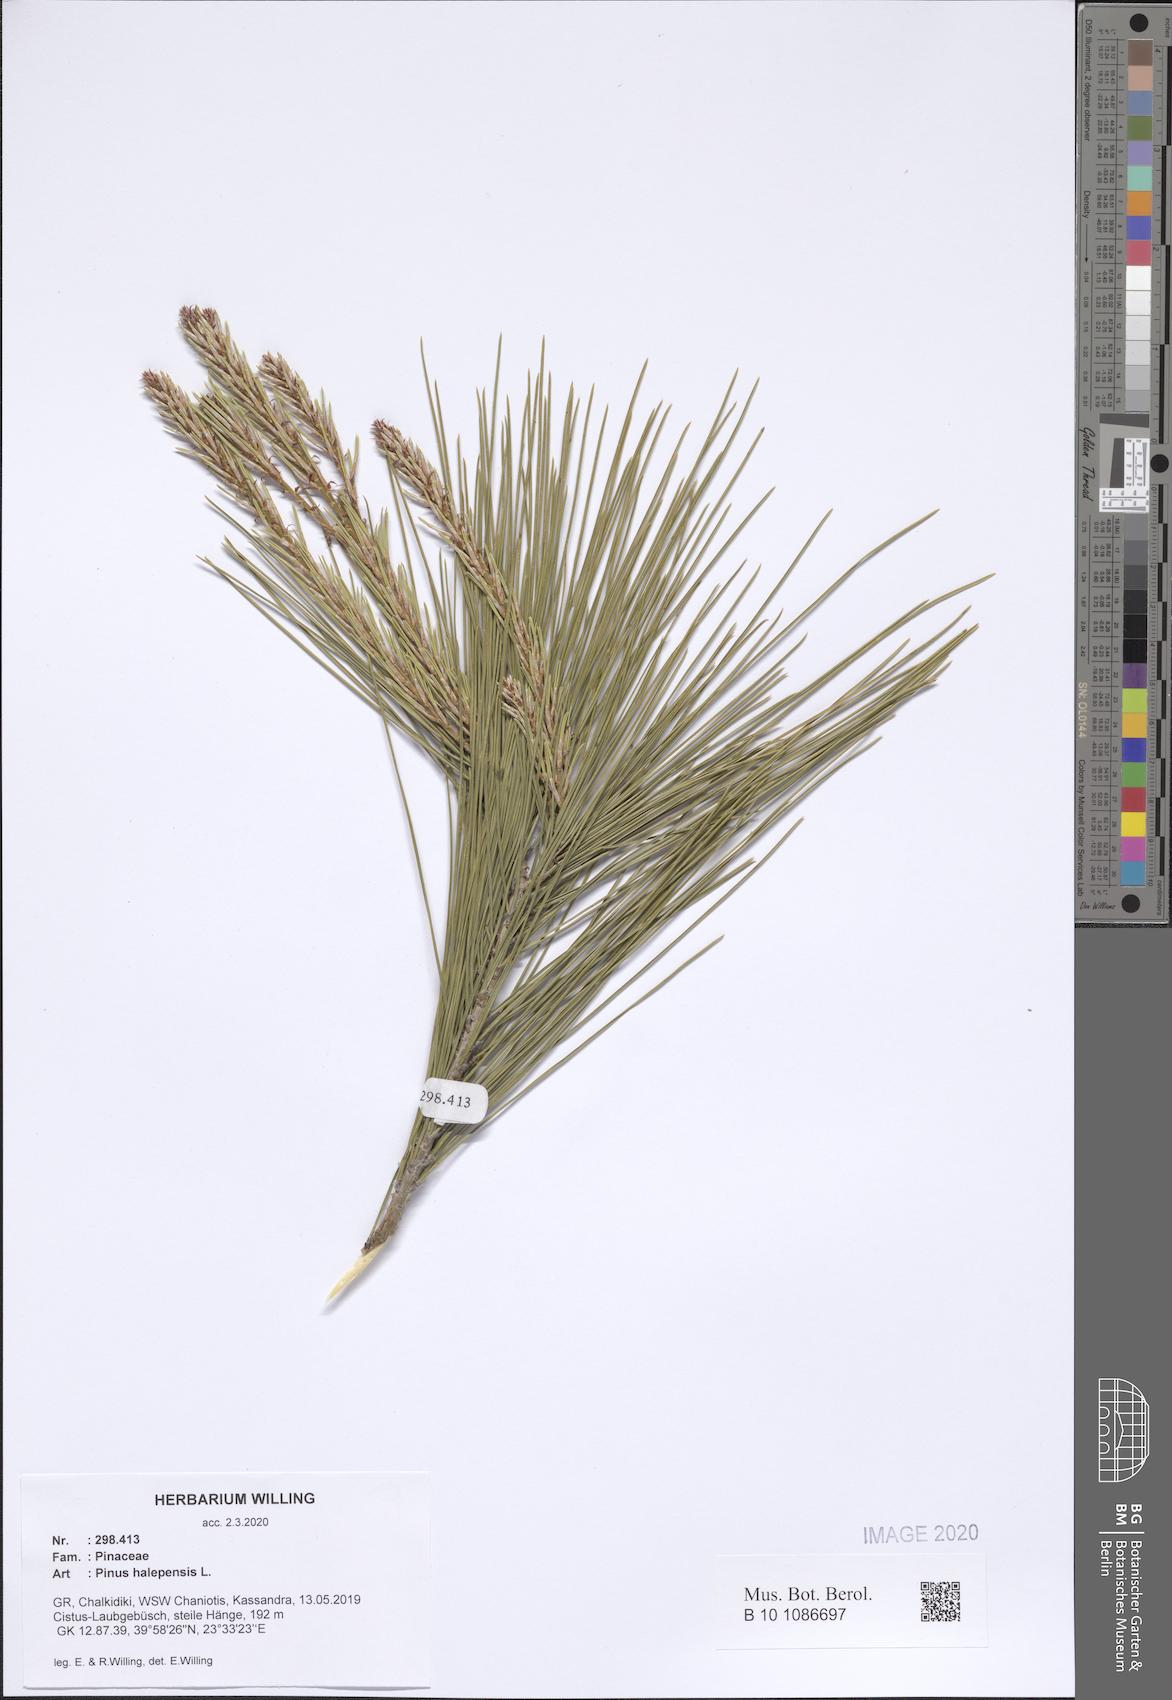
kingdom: Plantae
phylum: Tracheophyta
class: Pinopsida
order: Pinales
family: Pinaceae
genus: Pinus
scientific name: Pinus halepensis
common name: Aleppo pine
